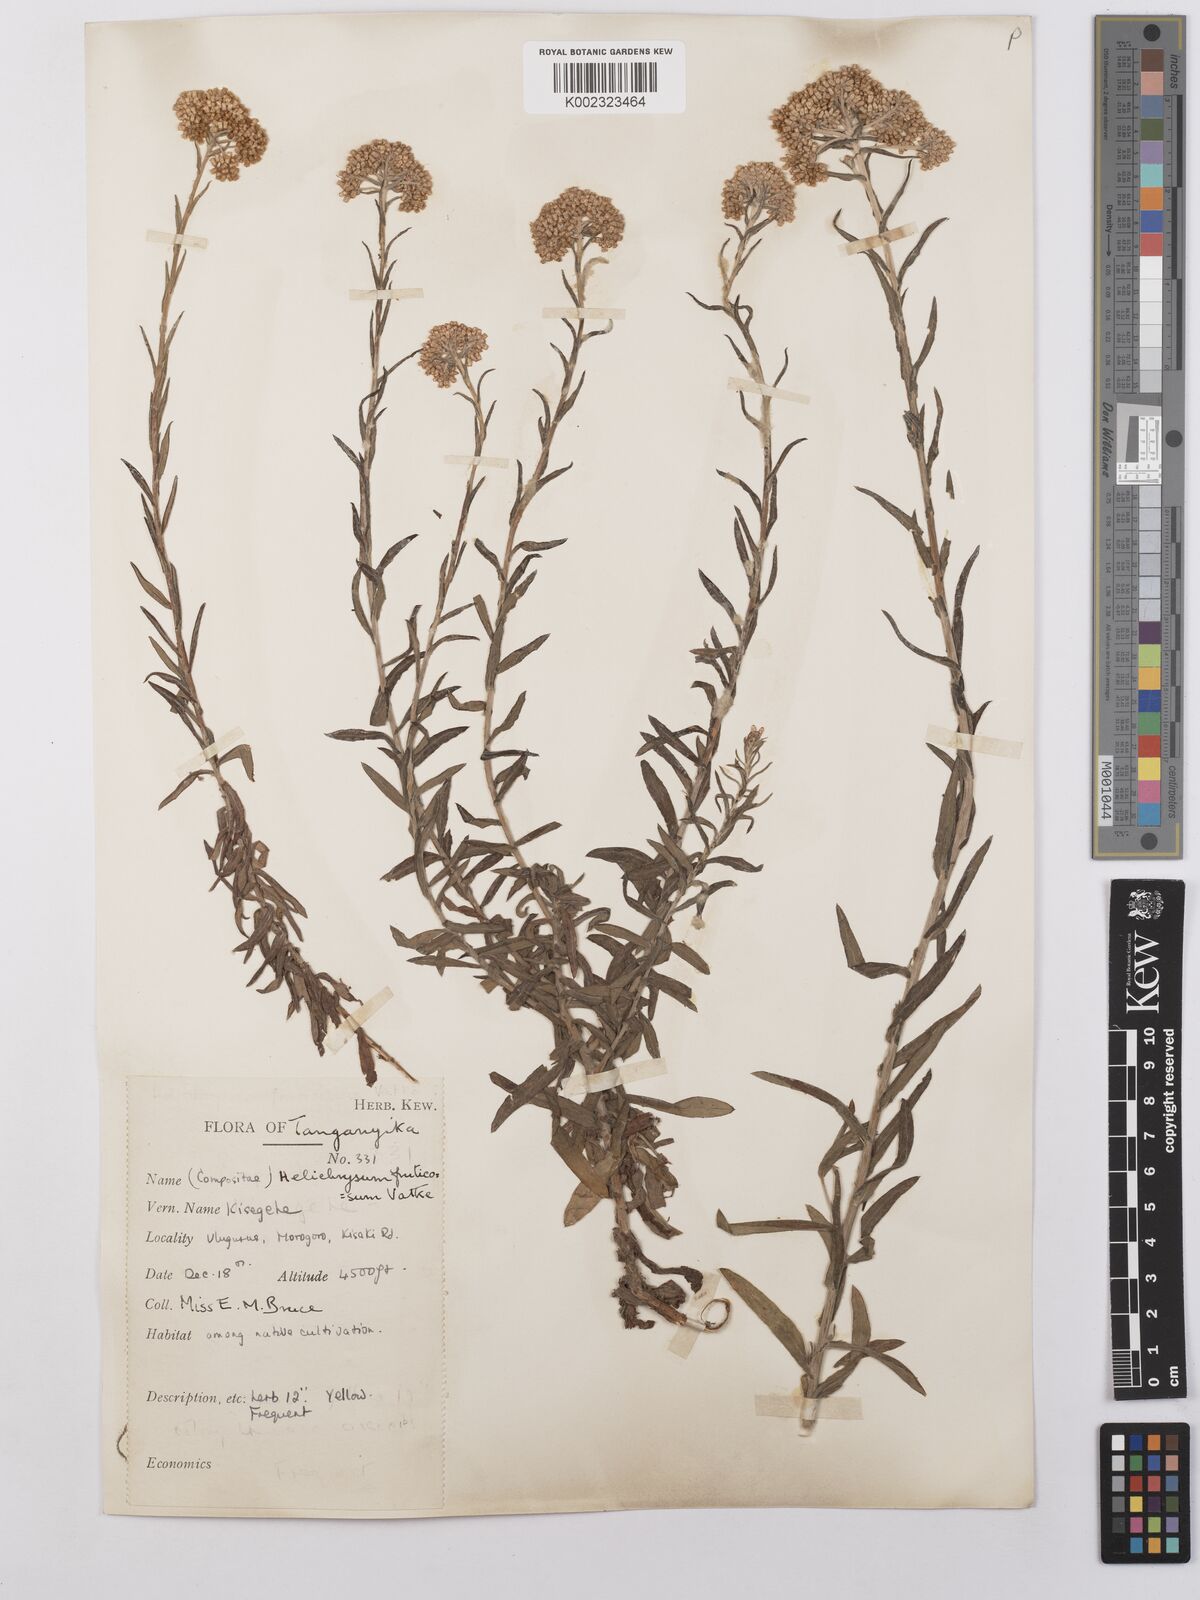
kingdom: Plantae
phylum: Tracheophyta
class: Magnoliopsida
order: Asterales
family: Asteraceae
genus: Helichrysum
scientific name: Helichrysum forskahlii
